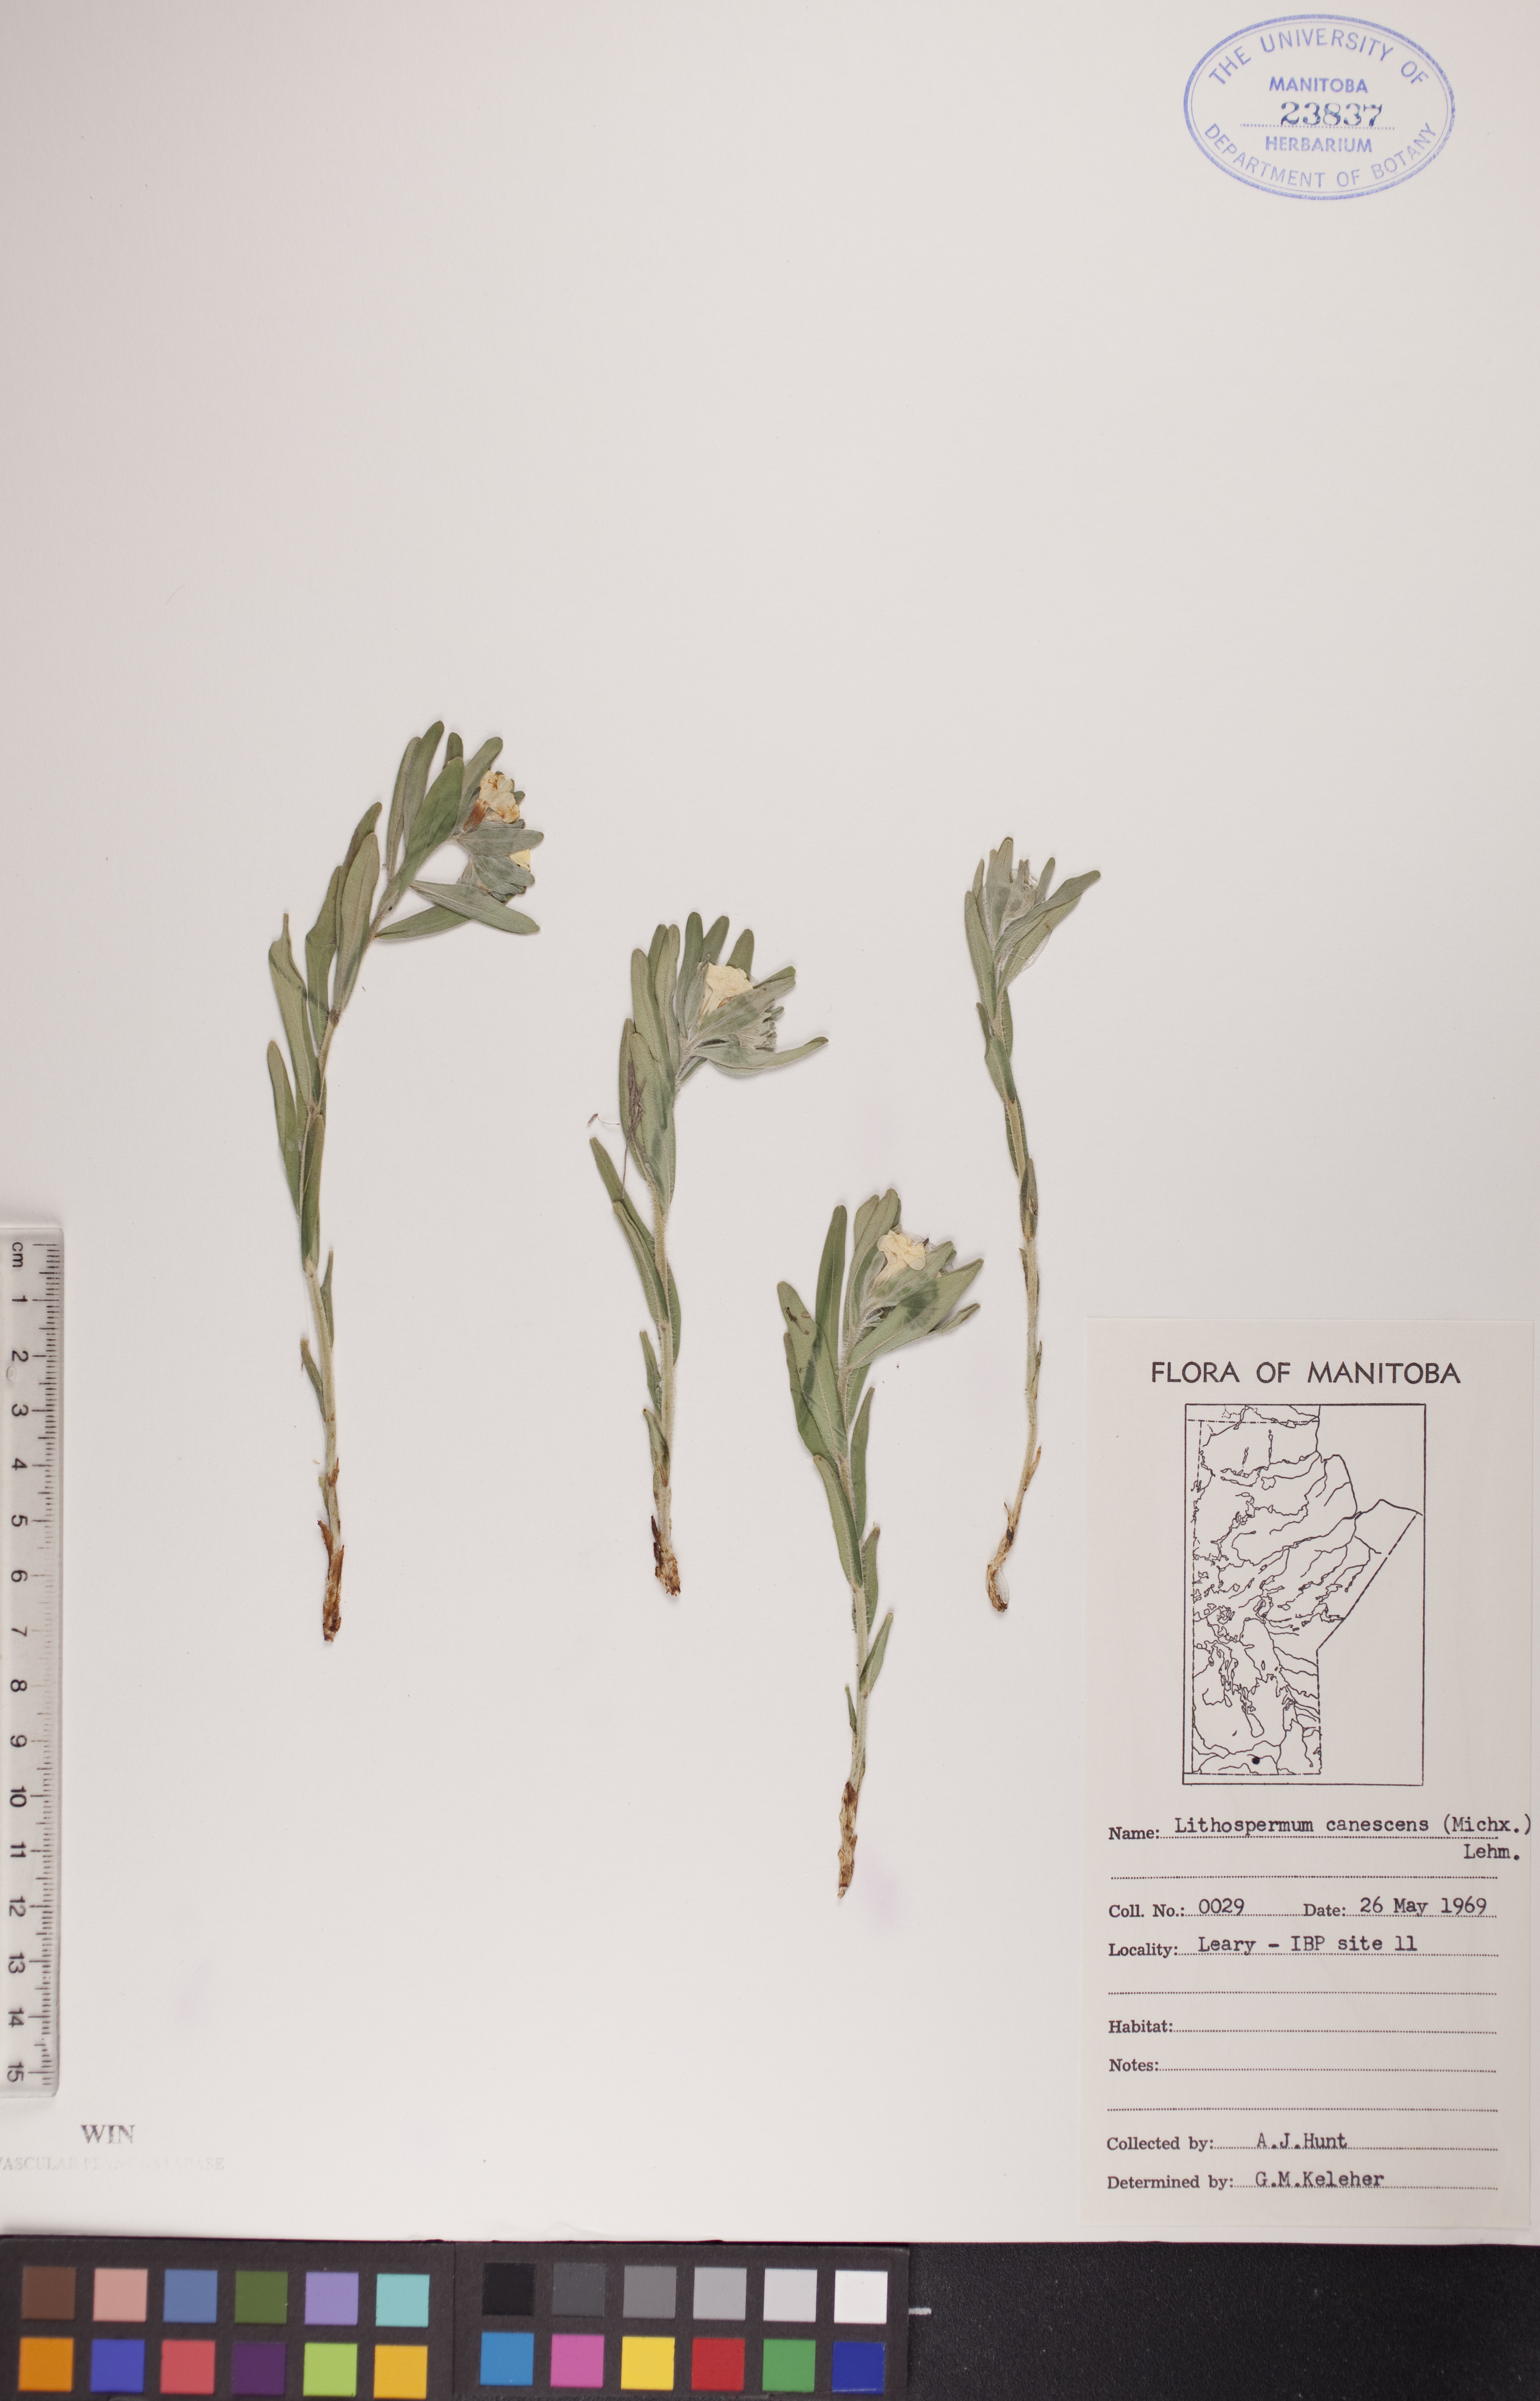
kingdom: Plantae
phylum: Tracheophyta
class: Magnoliopsida
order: Boraginales
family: Boraginaceae
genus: Lithospermum
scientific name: Lithospermum canescens
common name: Hoary puccoon
